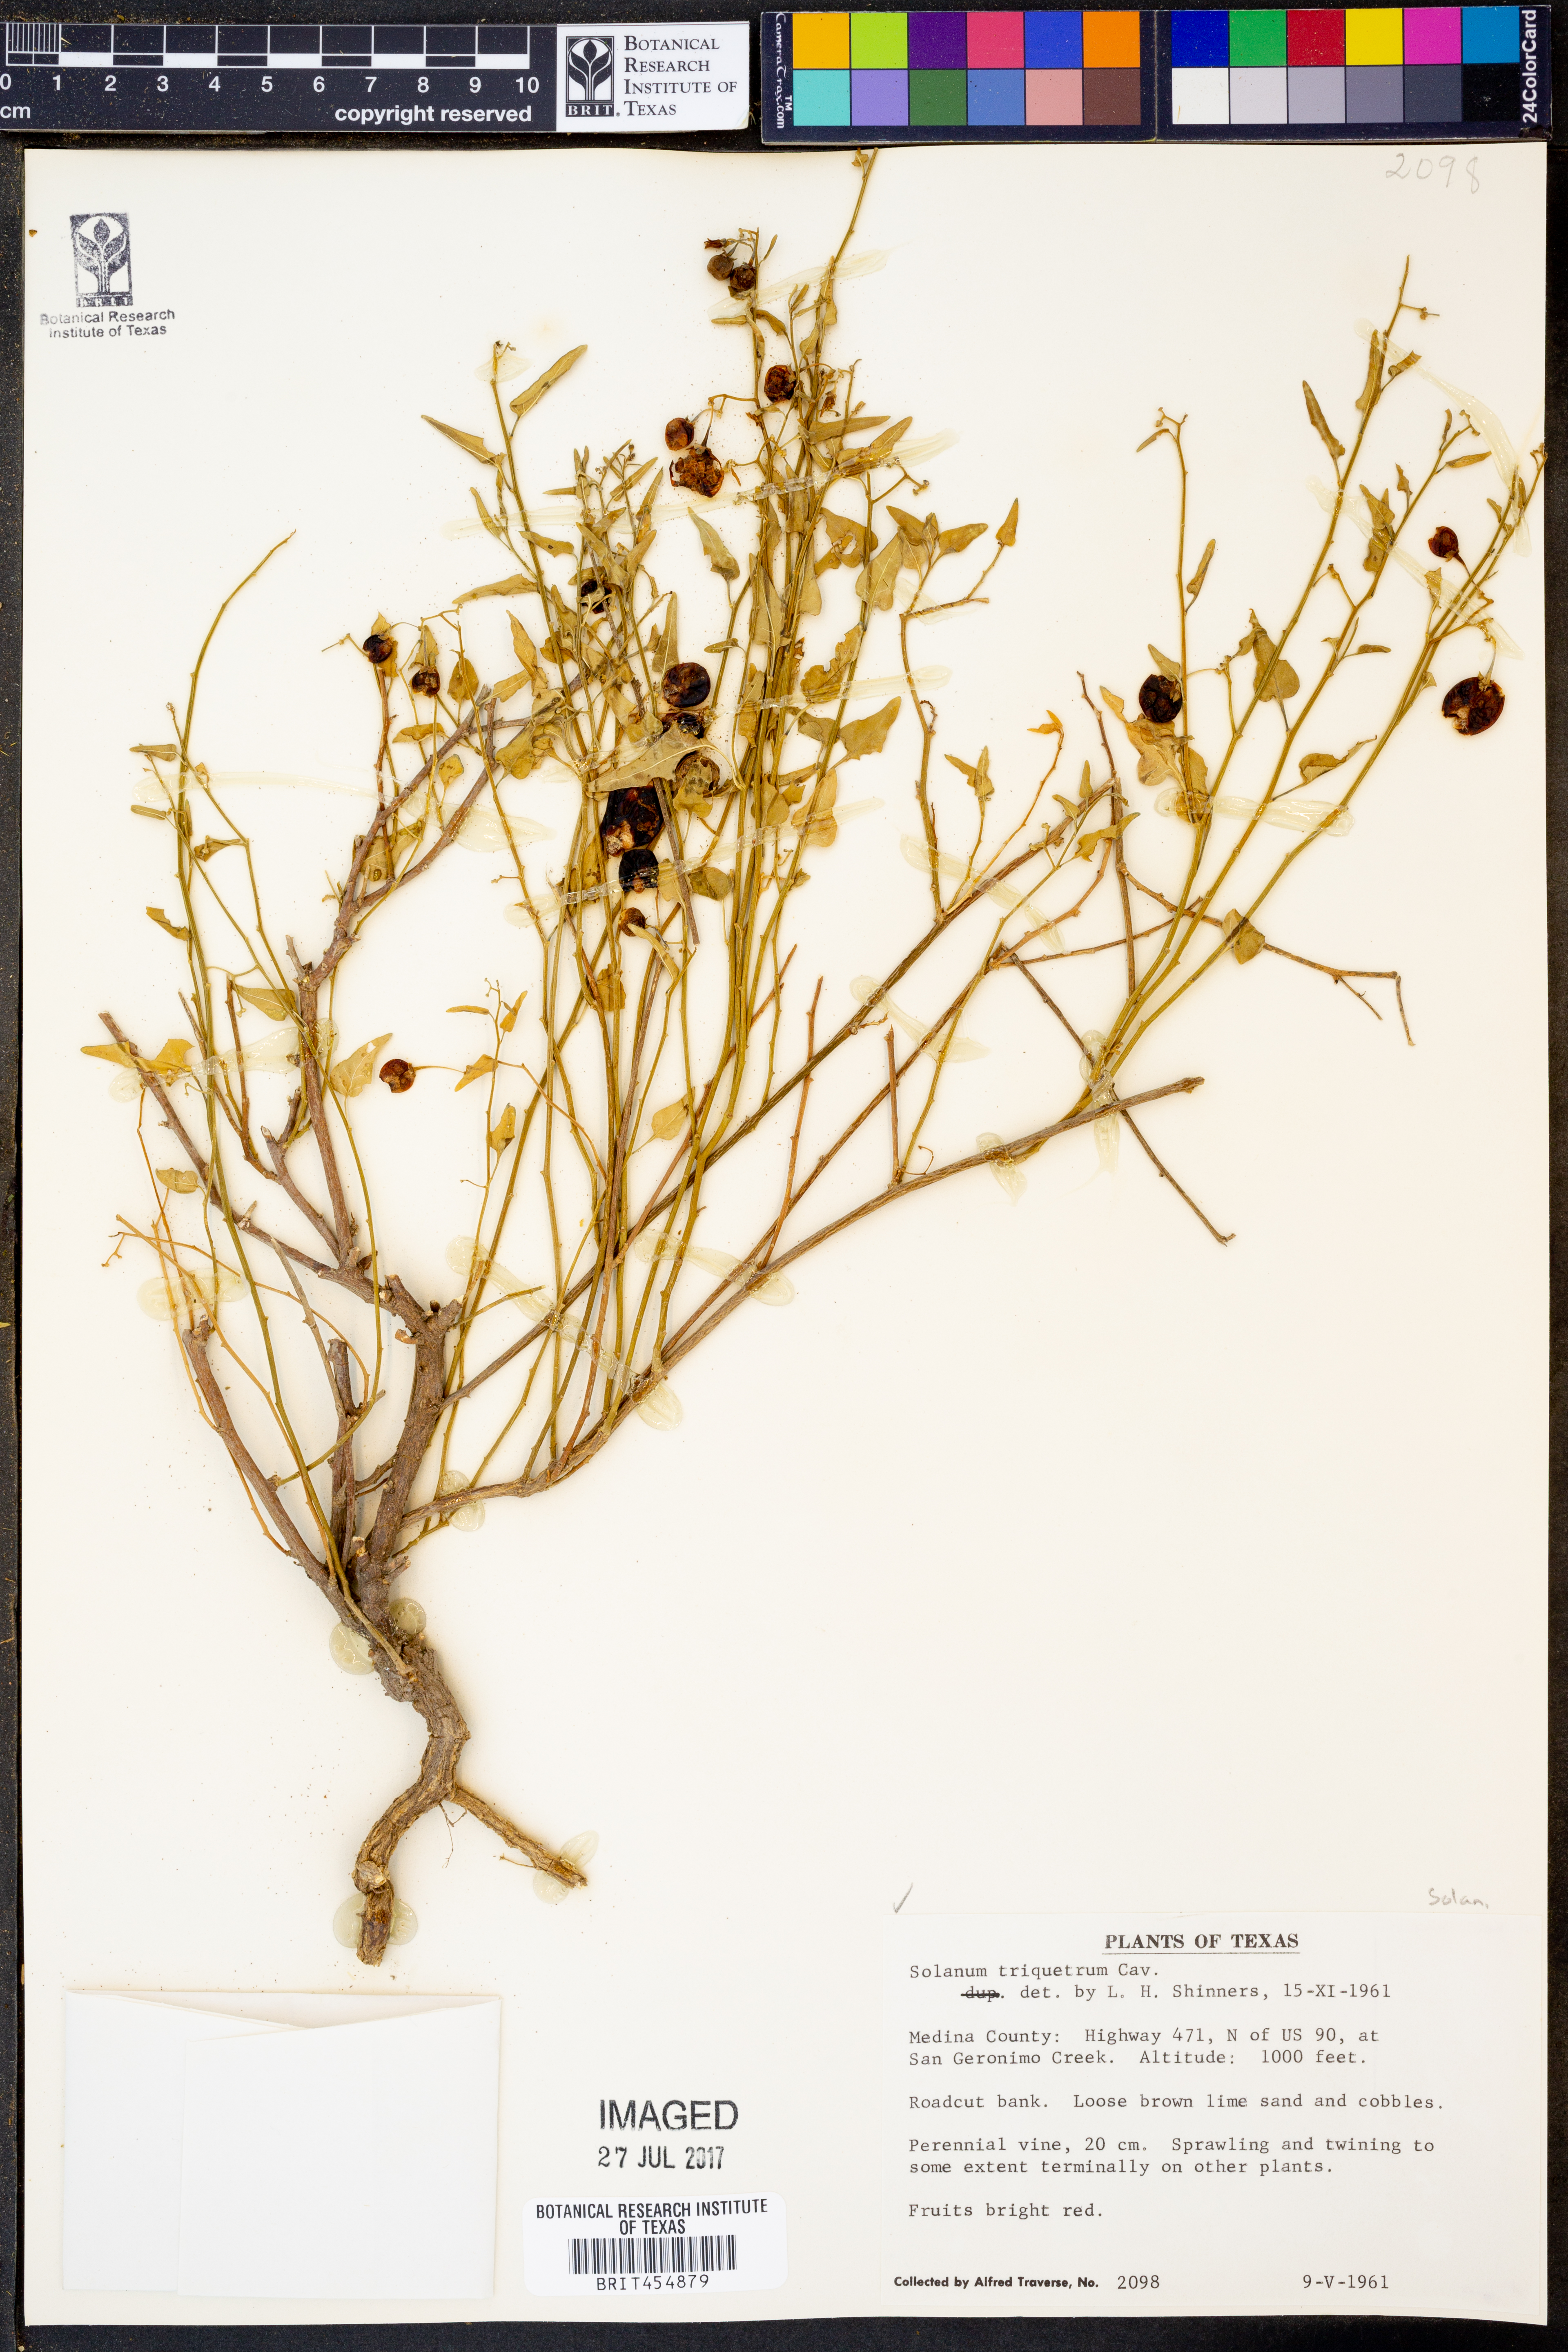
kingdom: Plantae
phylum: Tracheophyta
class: Magnoliopsida
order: Solanales
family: Solanaceae
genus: Solanum
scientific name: Solanum triquetrum
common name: Texas nightshade
